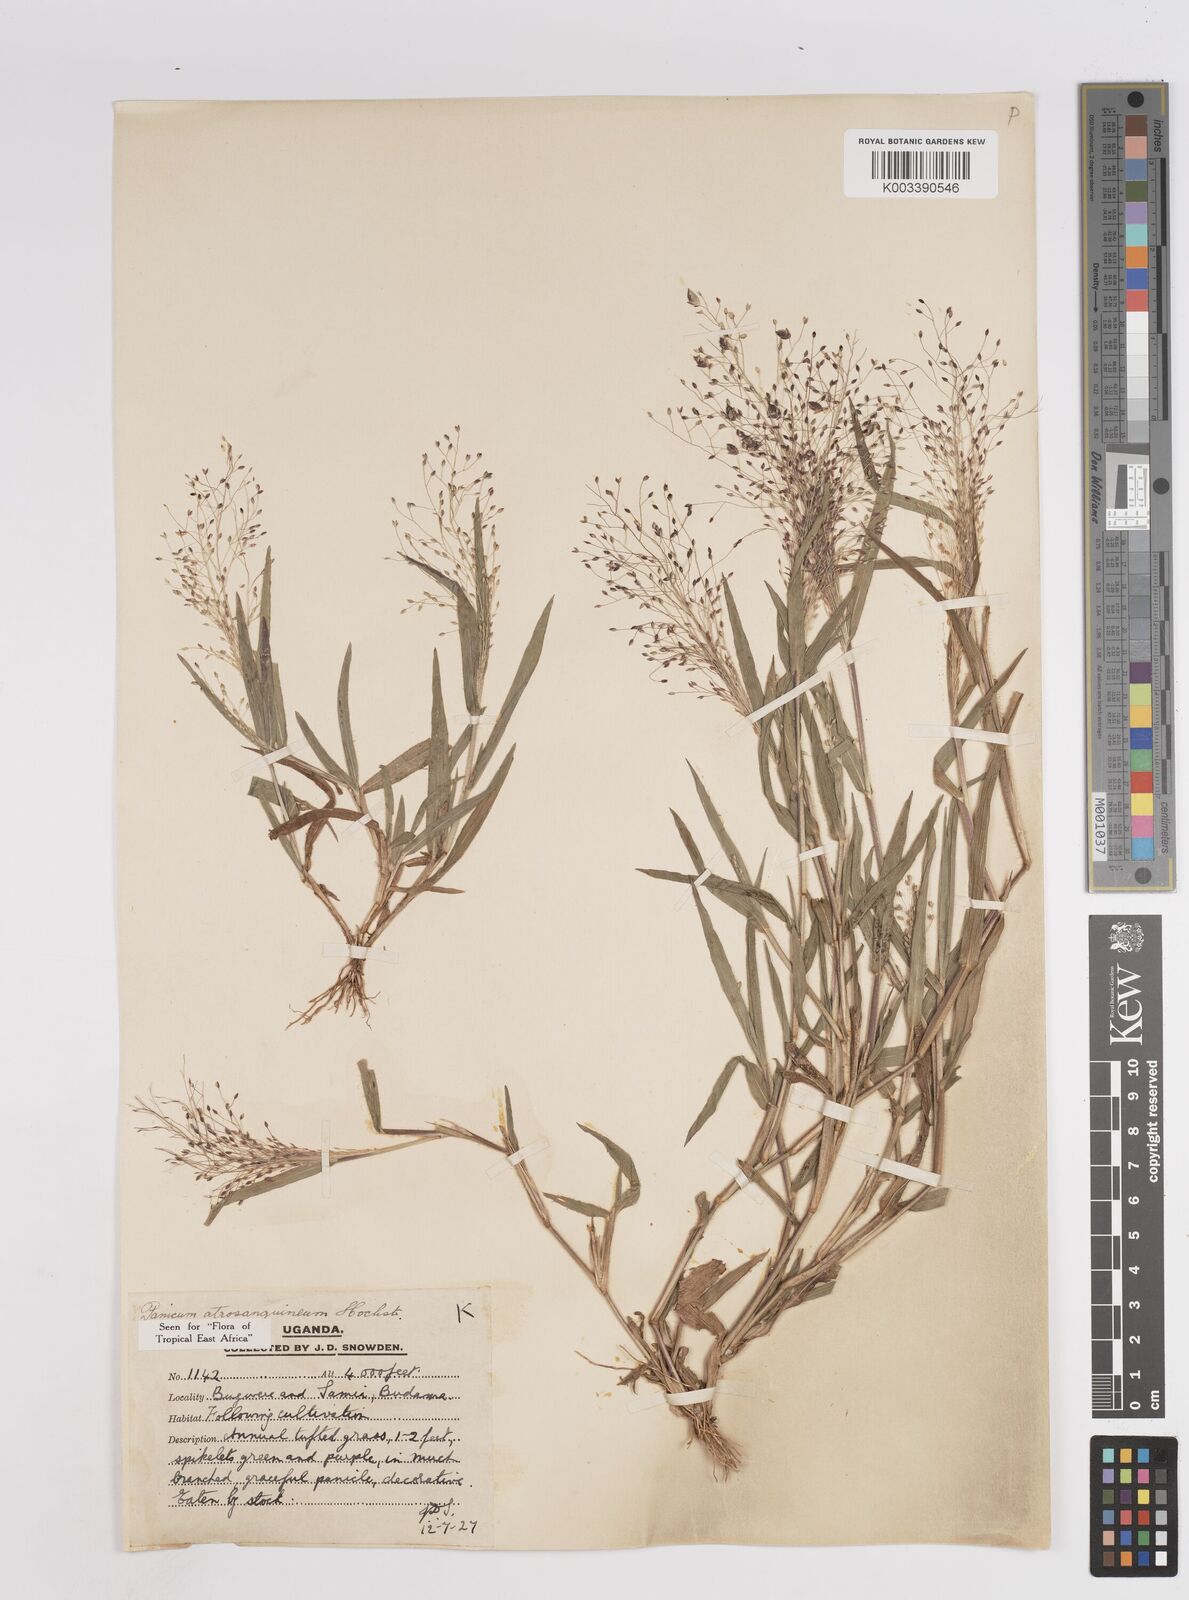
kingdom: Plantae
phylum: Tracheophyta
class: Liliopsida
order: Poales
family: Poaceae
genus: Panicum
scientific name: Panicum atrosanguineum
